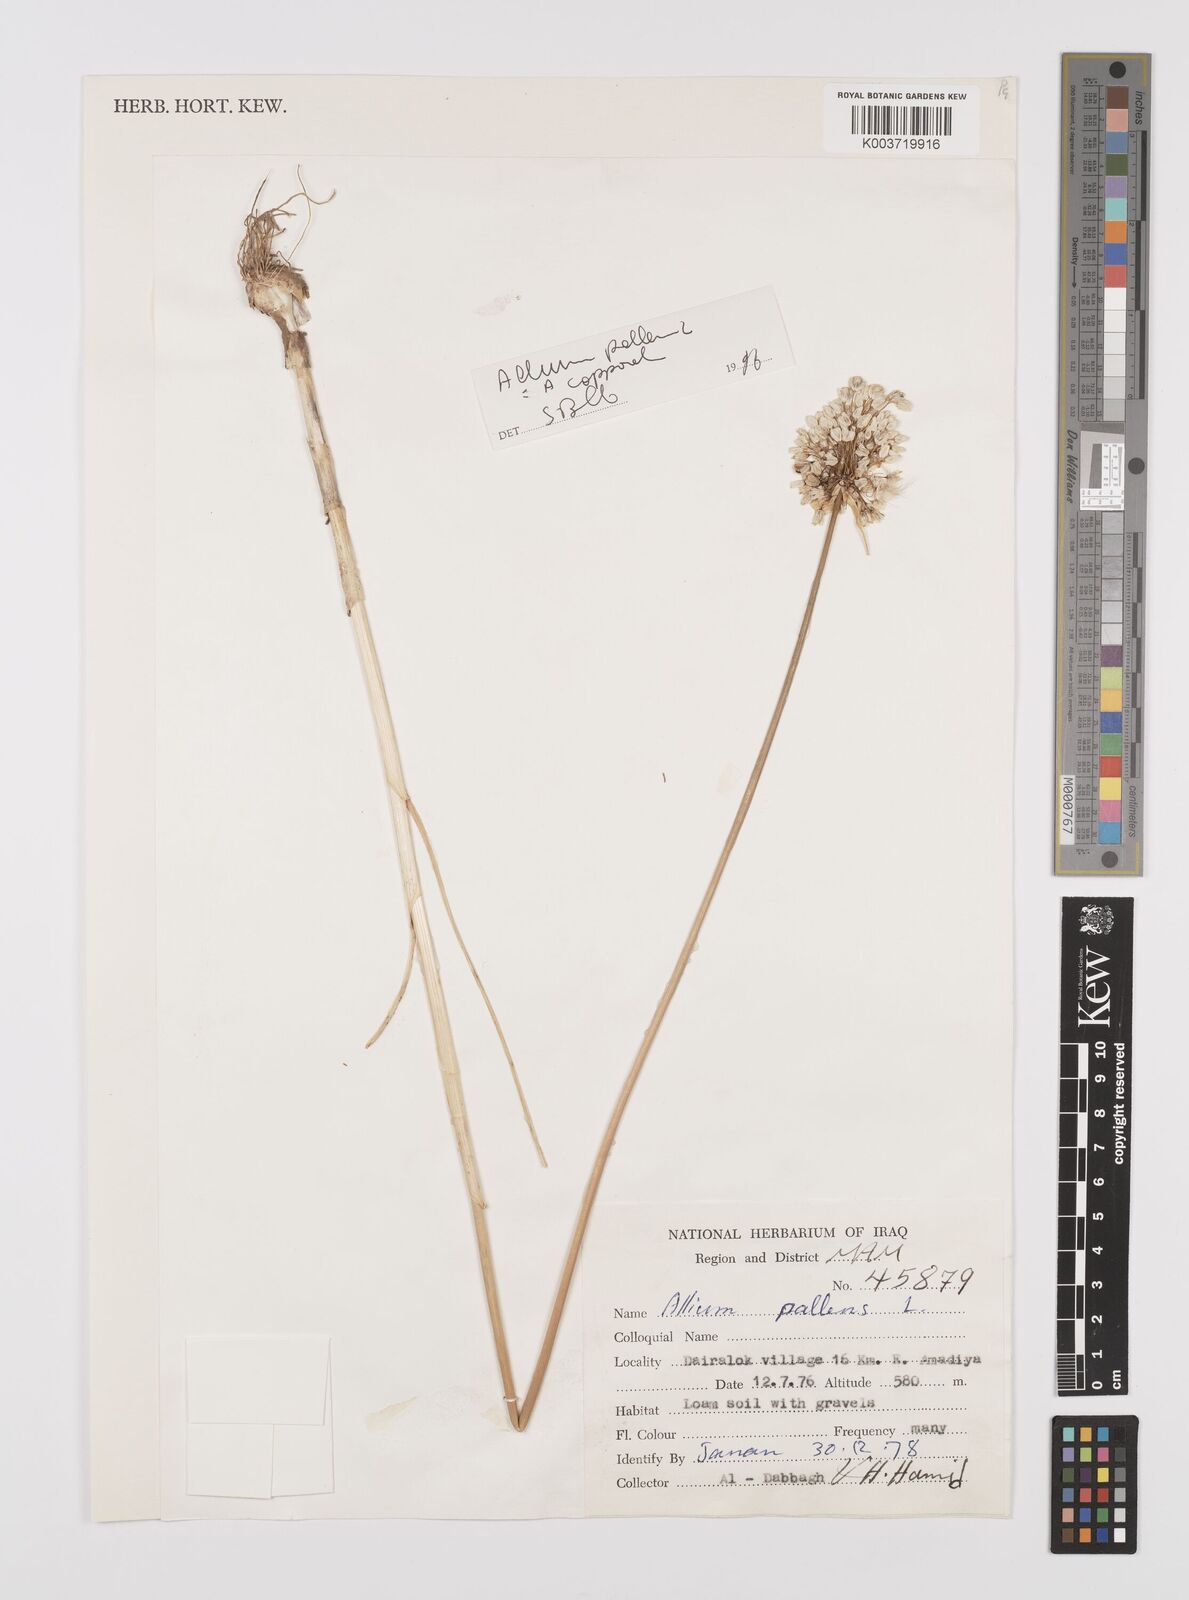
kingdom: Plantae
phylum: Tracheophyta
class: Liliopsida
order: Asparagales
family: Amaryllidaceae
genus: Allium
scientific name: Allium pallens
